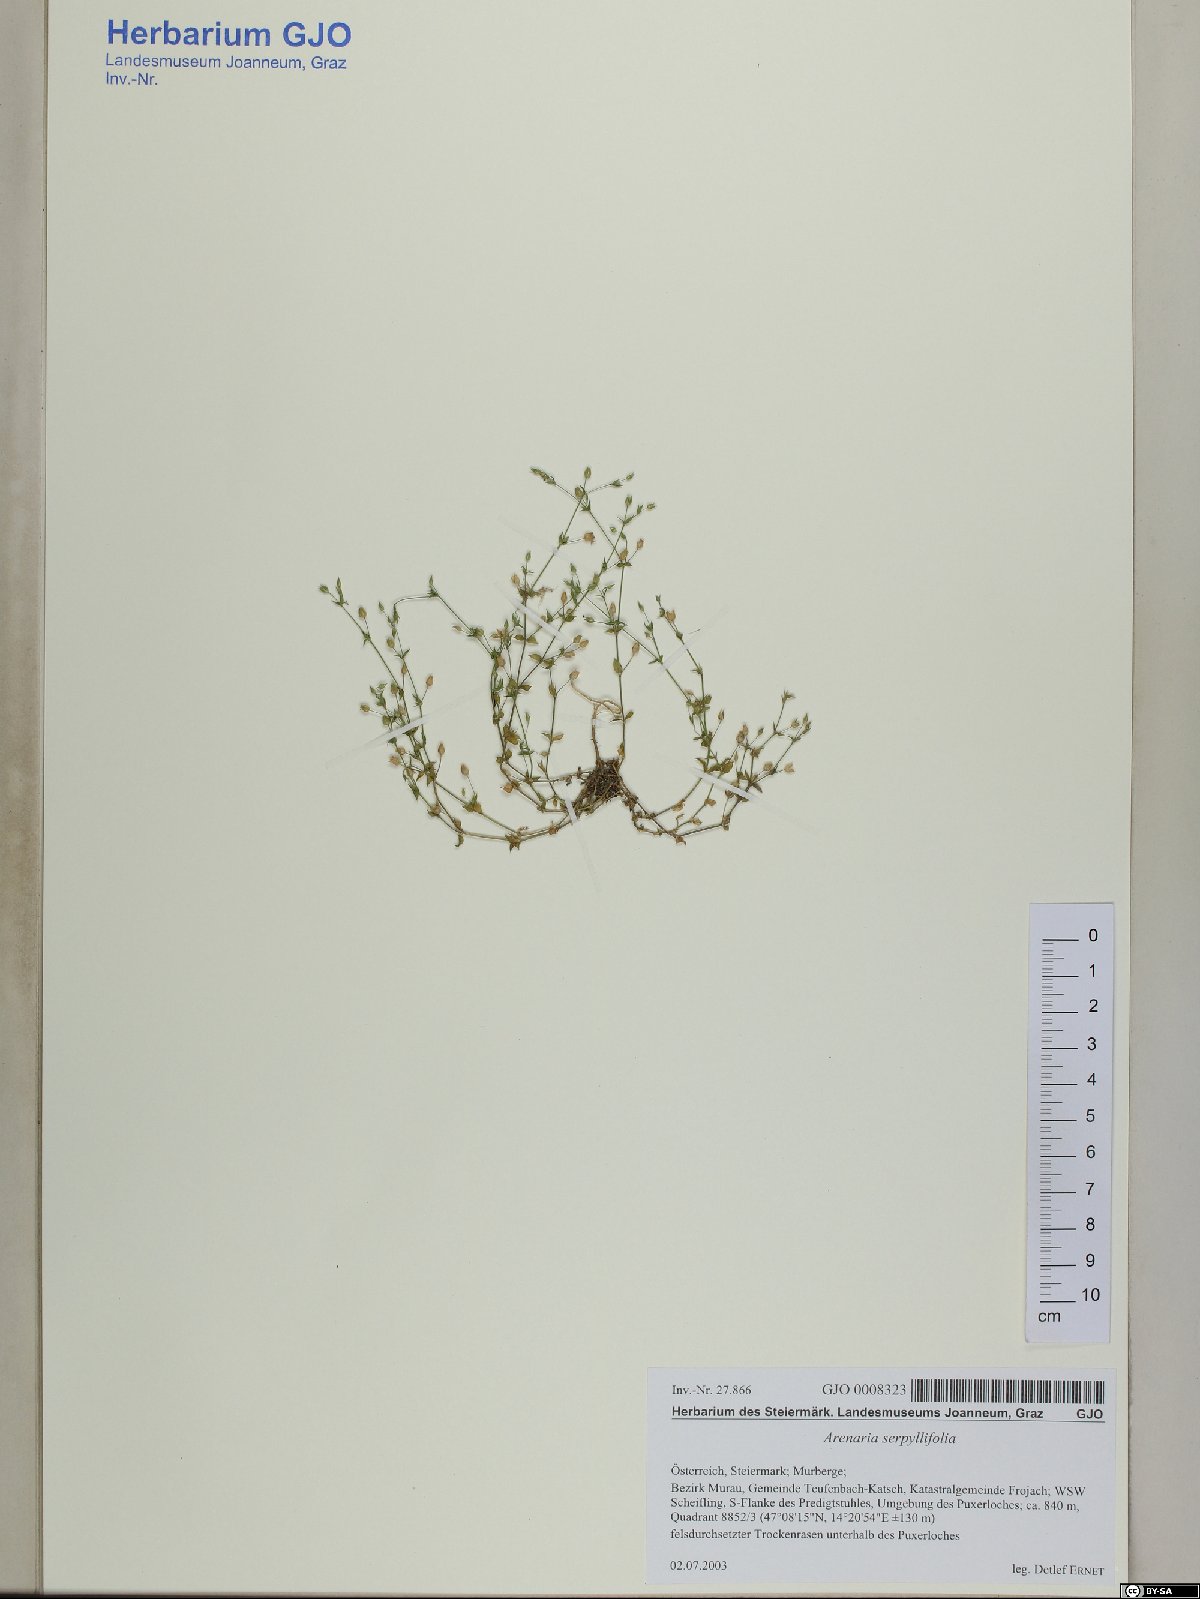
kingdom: Plantae
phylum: Tracheophyta
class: Magnoliopsida
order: Caryophyllales
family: Caryophyllaceae
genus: Arenaria
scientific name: Arenaria serpyllifolia
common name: Thyme-leaved sandwort
